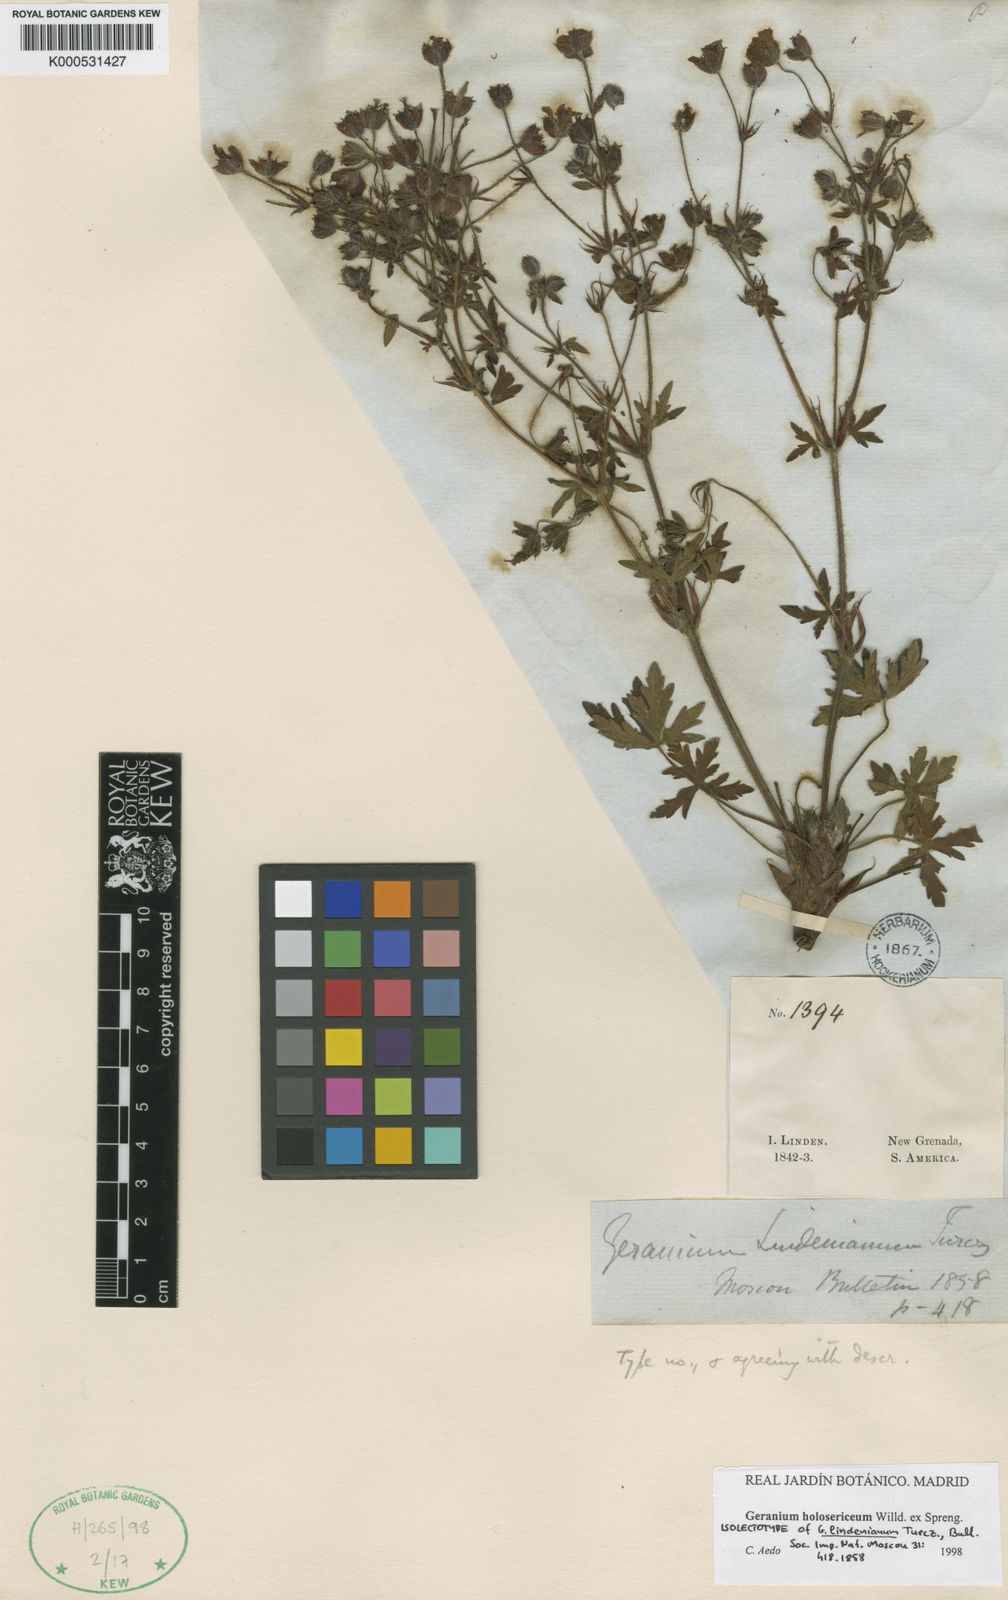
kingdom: Plantae
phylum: Tracheophyta
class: Magnoliopsida
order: Geraniales
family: Geraniaceae
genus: Geranium
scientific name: Geranium holosericeum
